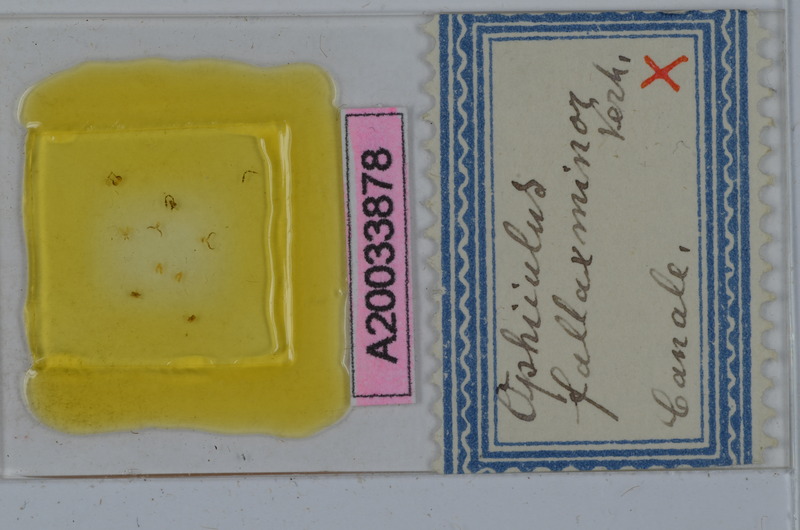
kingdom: Animalia
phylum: Arthropoda
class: Diplopoda
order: Julida
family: Julidae
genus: Ophyiulus
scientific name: Ophyiulus pilosus
